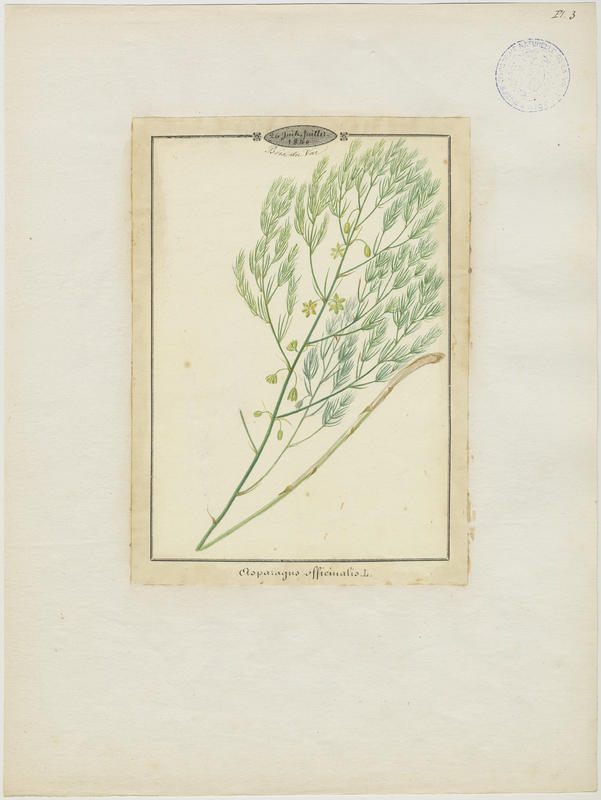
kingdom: Plantae
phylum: Tracheophyta
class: Liliopsida
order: Asparagales
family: Asparagaceae
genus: Asparagus
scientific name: Asparagus officinalis
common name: Garden asparagus
